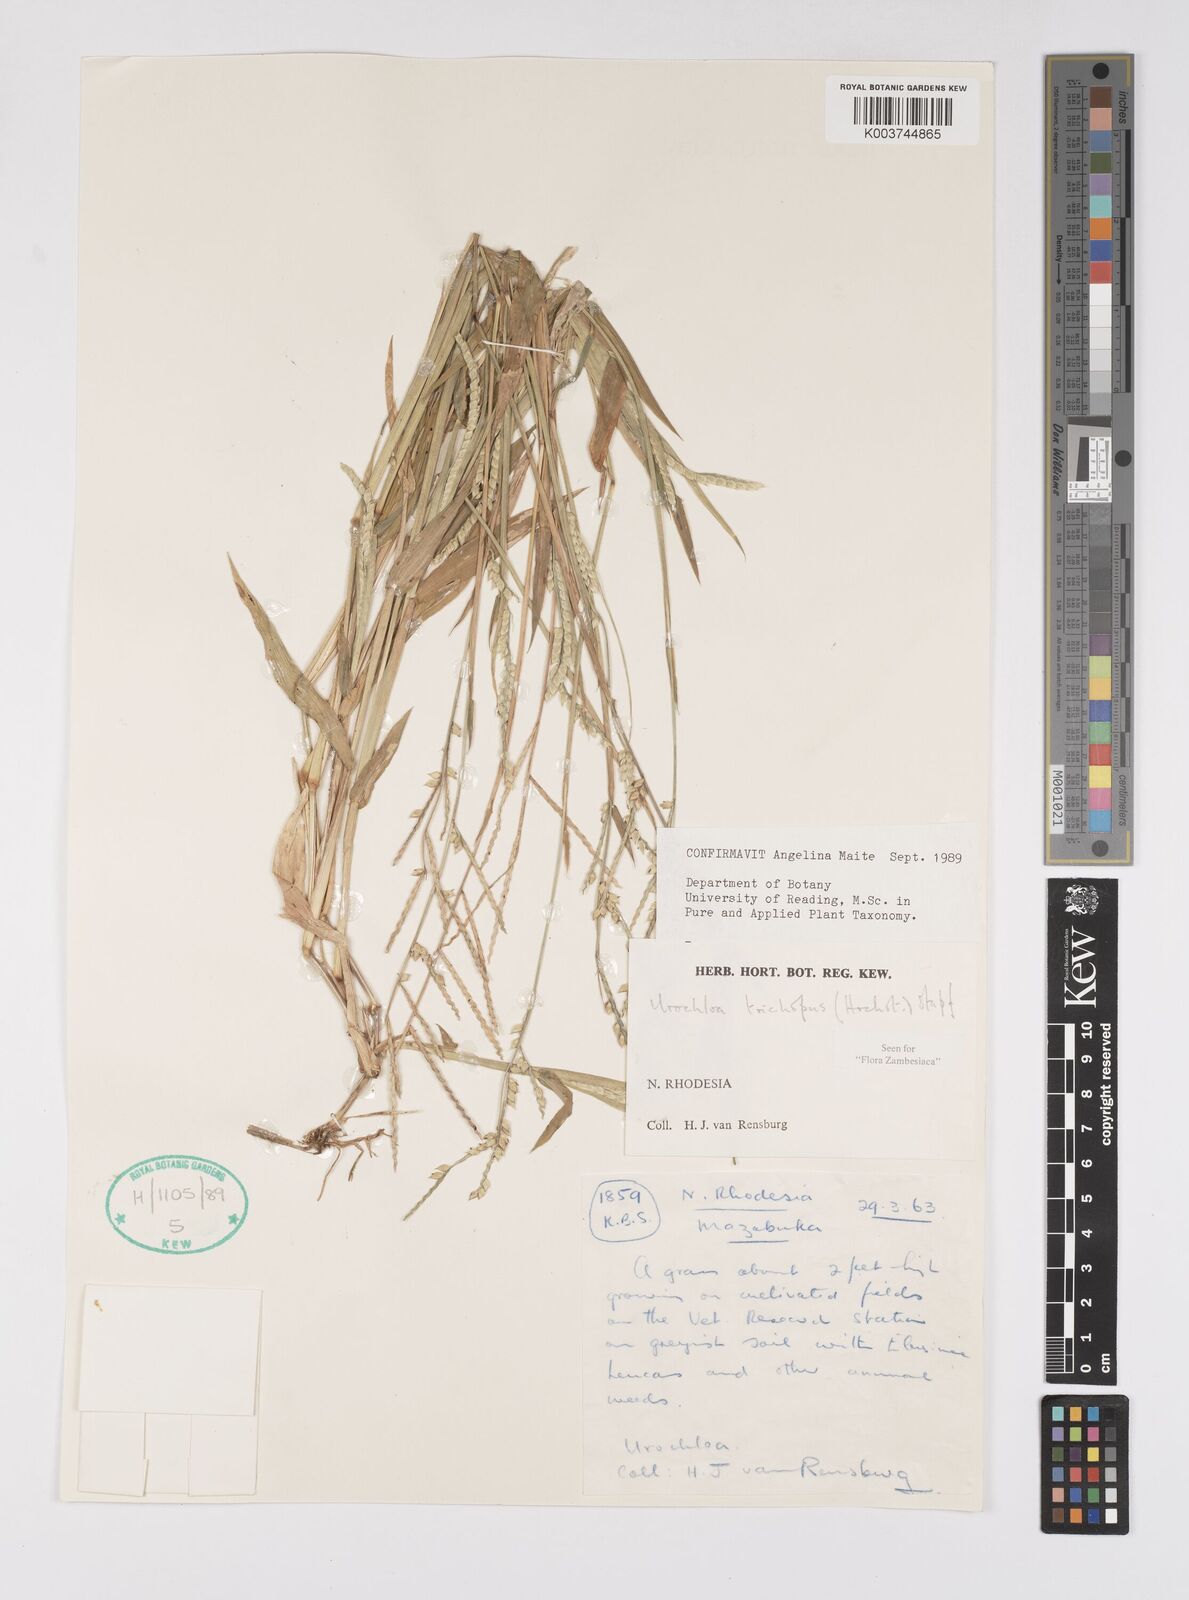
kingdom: Plantae
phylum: Tracheophyta
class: Liliopsida
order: Poales
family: Poaceae
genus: Urochloa
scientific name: Urochloa trichopus
